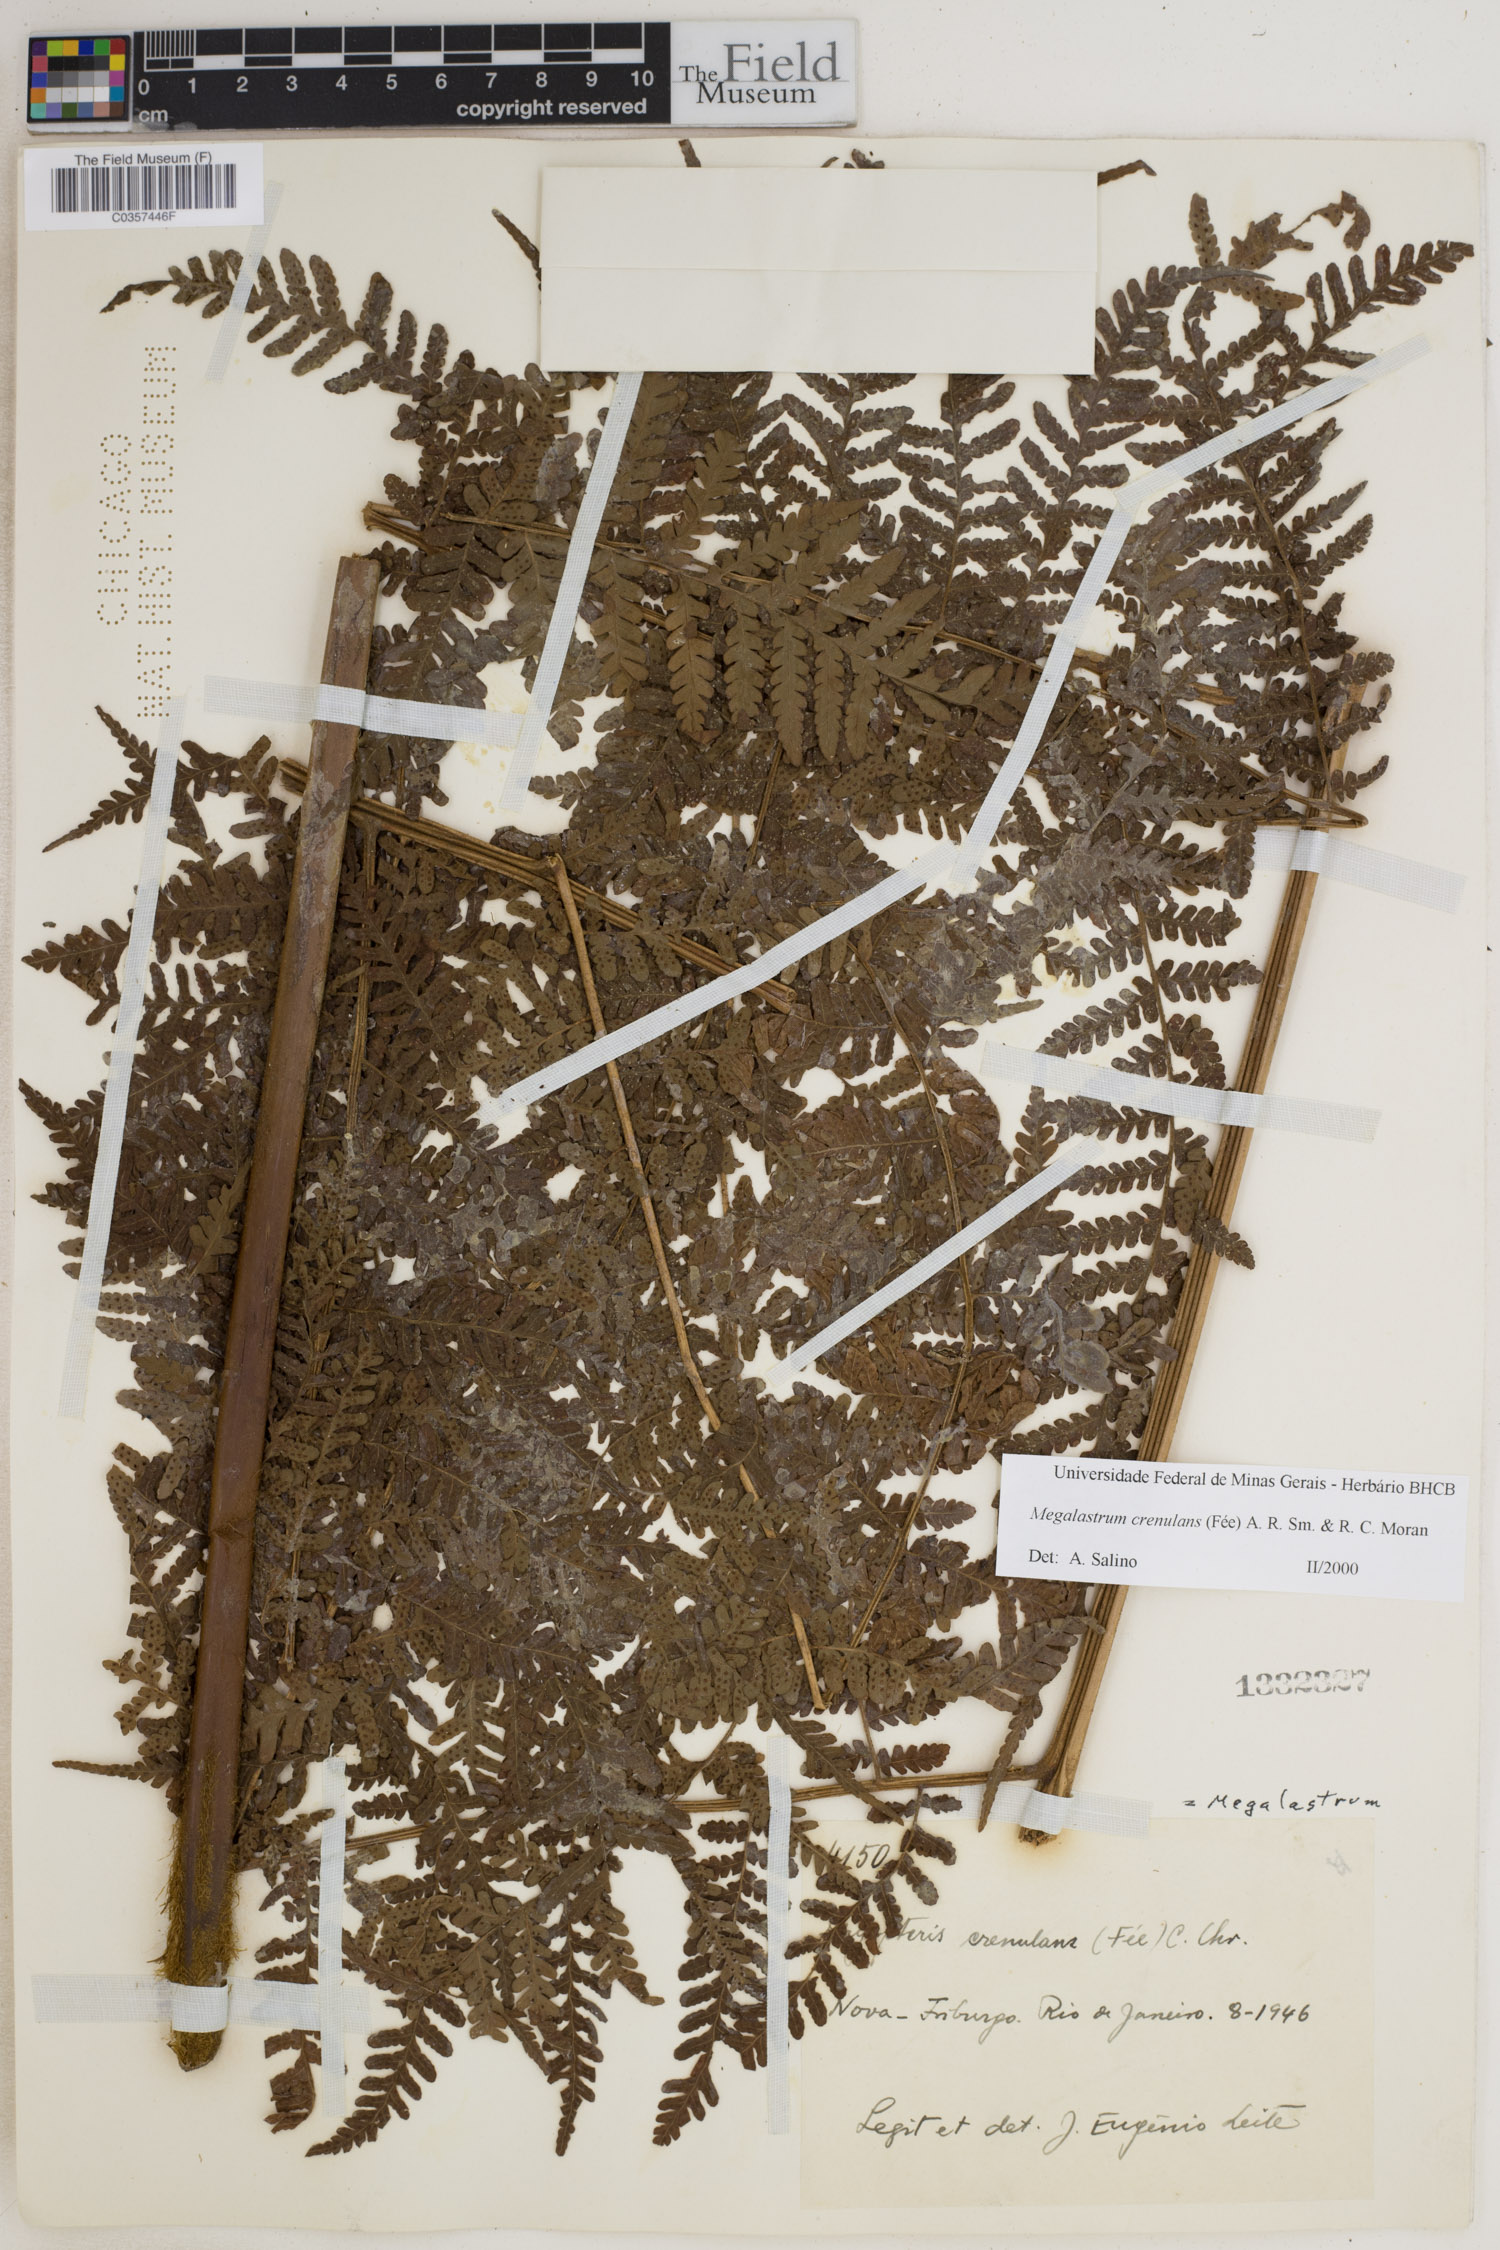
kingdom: Plantae
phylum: Tracheophyta
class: Polypodiopsida
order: Polypodiales
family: Dryopteridaceae
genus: Megalastrum
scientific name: Megalastrum crenulans
